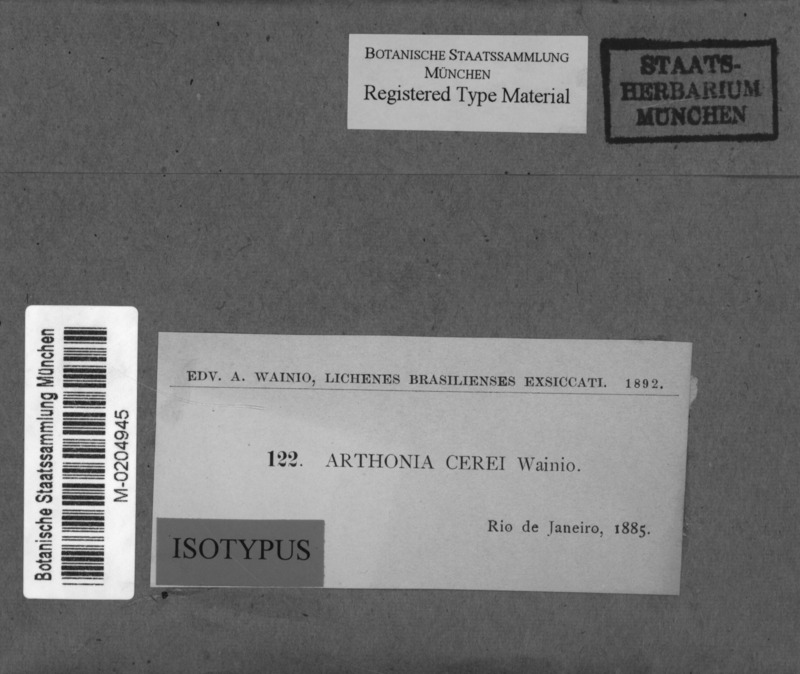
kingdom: Fungi
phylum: Ascomycota
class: Arthoniomycetes
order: Arthoniales
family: Arthoniaceae
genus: Arthonia
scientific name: Arthonia
